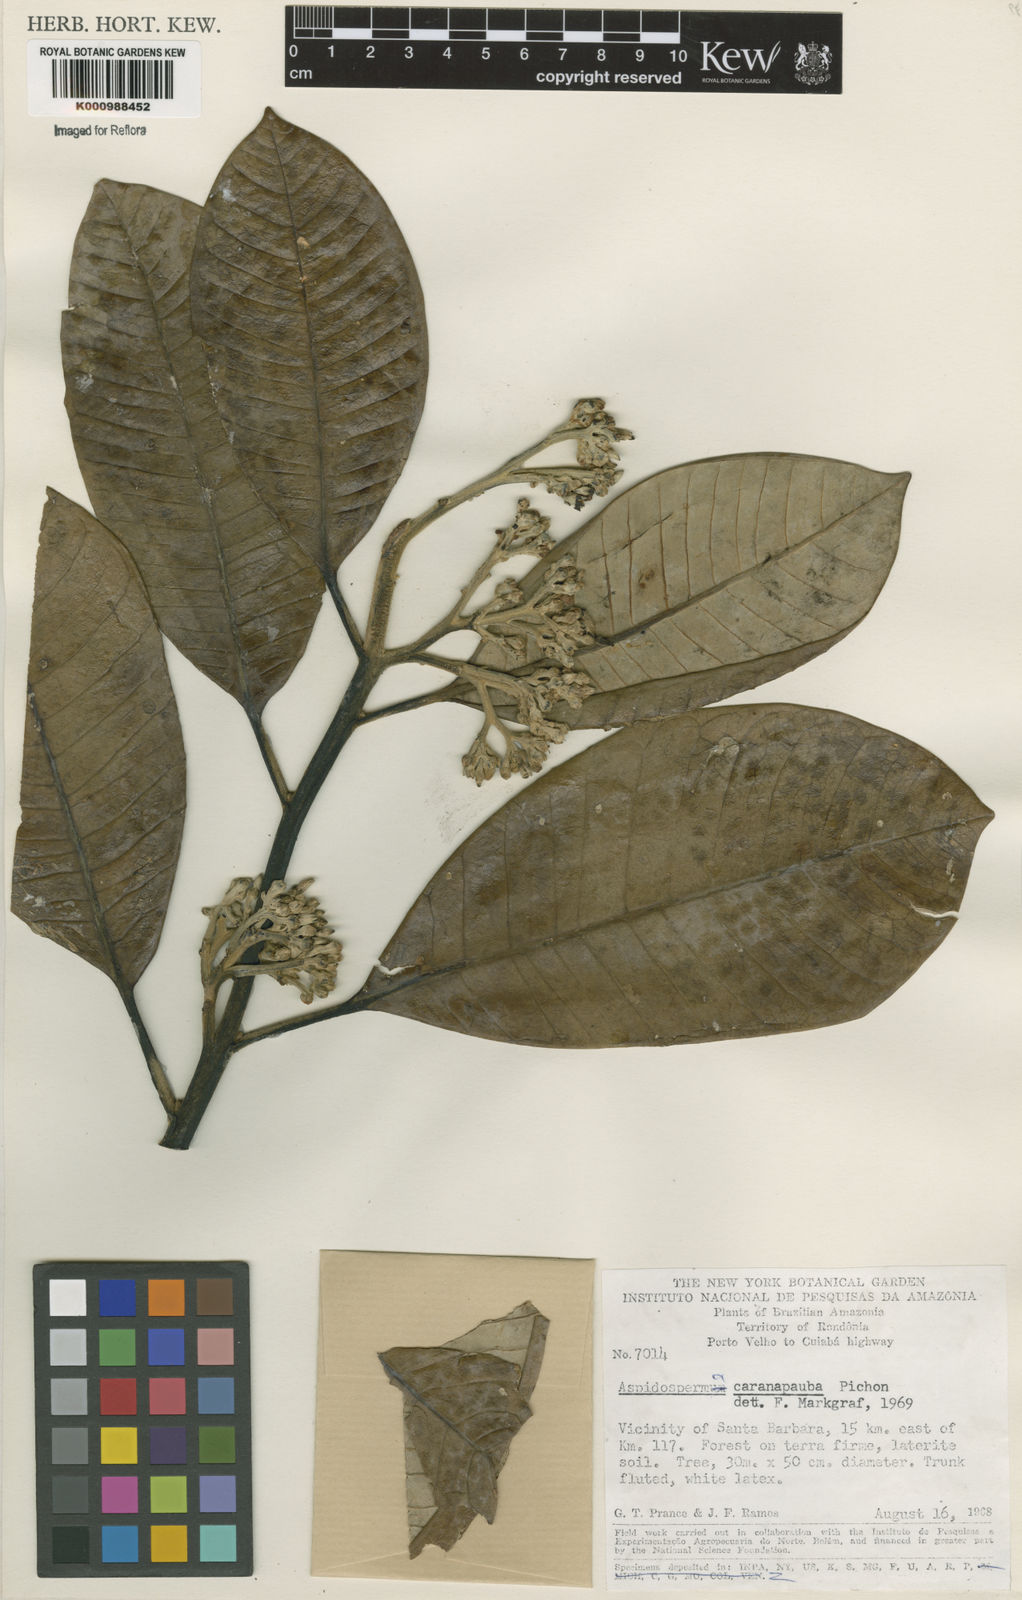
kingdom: Plantae
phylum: Tracheophyta
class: Magnoliopsida
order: Gentianales
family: Apocynaceae
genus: Aspidosperma
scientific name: Aspidosperma carapanauba
